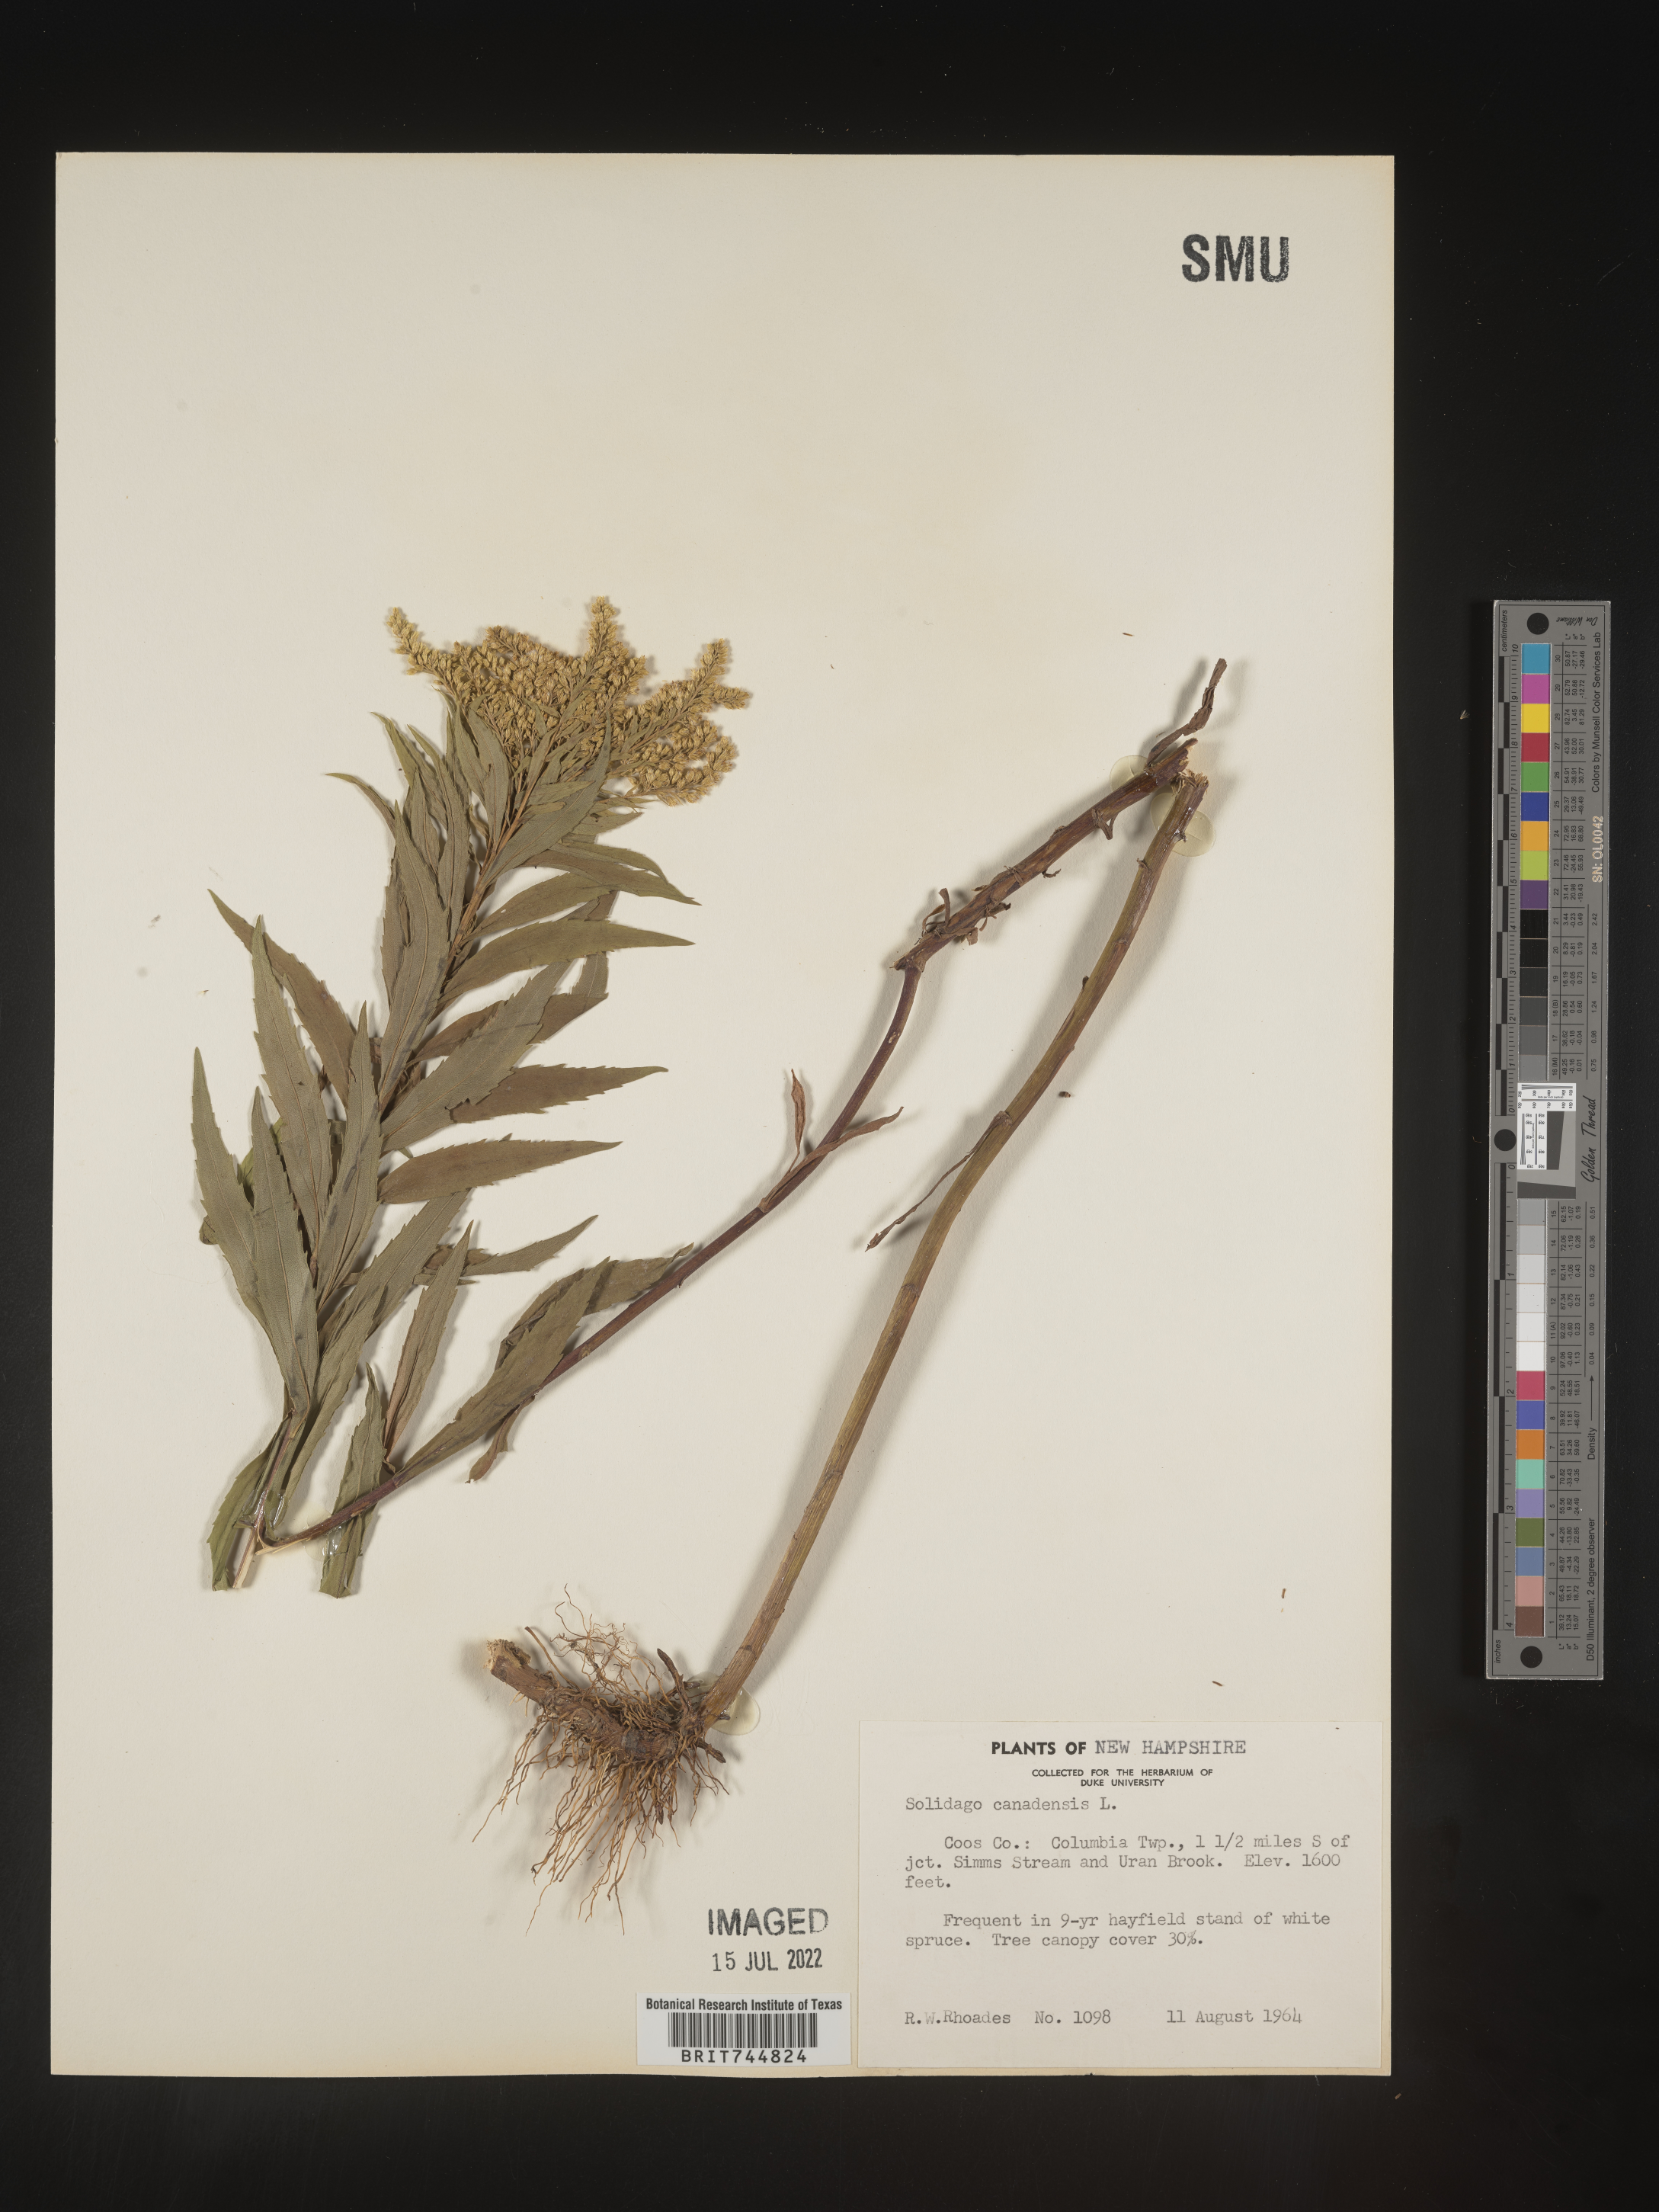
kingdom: Plantae
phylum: Tracheophyta
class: Magnoliopsida
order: Asterales
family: Asteraceae
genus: Solidago
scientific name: Solidago canadensis
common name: Canada goldenrod
